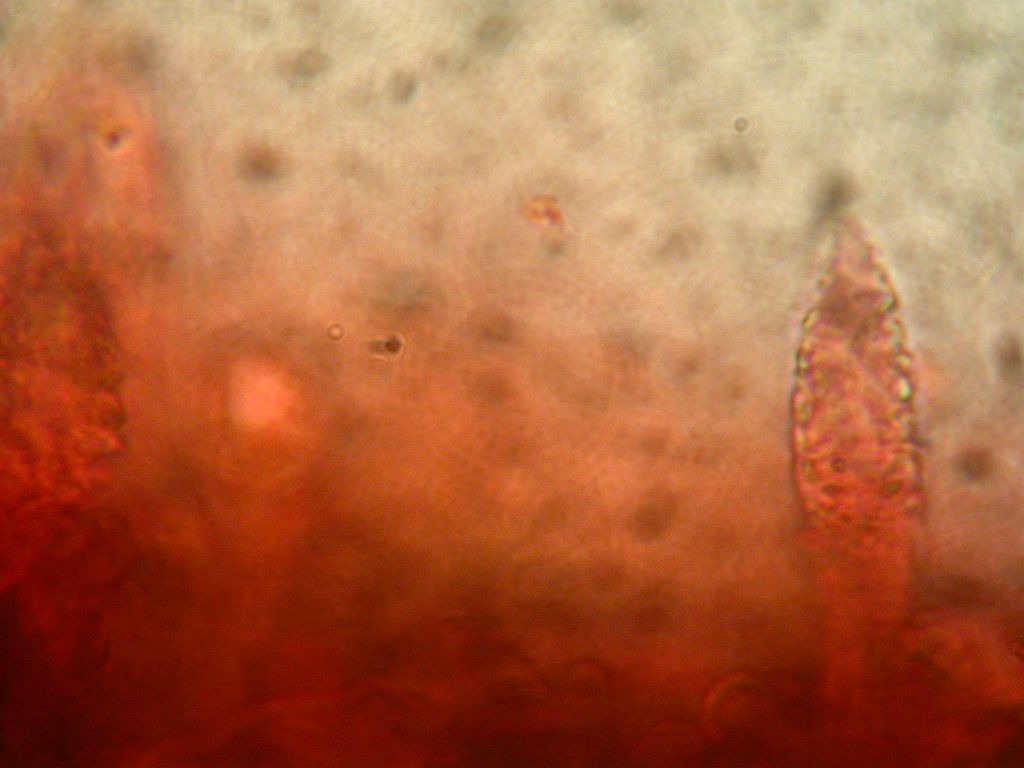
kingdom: Fungi
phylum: Basidiomycota
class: Agaricomycetes
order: Russulales
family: Peniophoraceae
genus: Peniophora
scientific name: Peniophora cinerea
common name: grå voksskind
